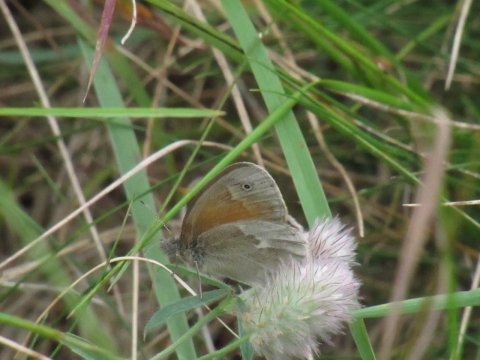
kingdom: Animalia
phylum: Arthropoda
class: Insecta
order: Lepidoptera
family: Nymphalidae
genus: Coenonympha
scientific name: Coenonympha tullia
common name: Large Heath
